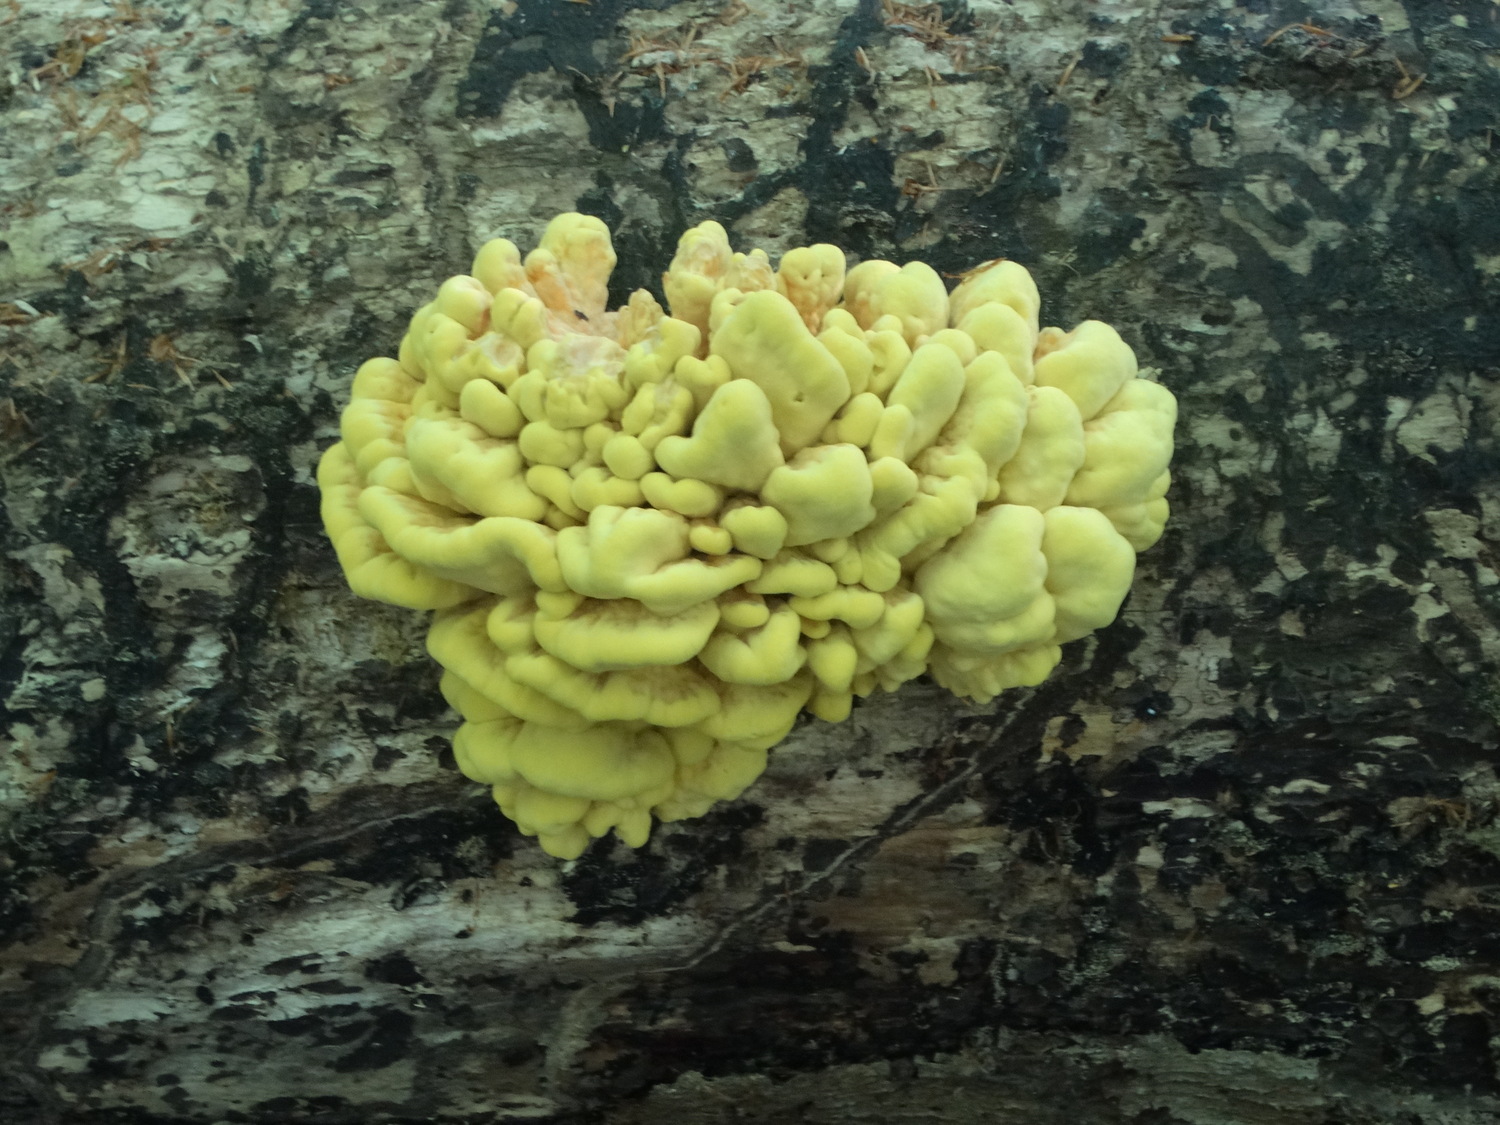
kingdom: Fungi
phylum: Basidiomycota
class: Agaricomycetes
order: Polyporales
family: Laetiporaceae
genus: Laetiporus
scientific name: Laetiporus sulphureus
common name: svovlporesvamp
